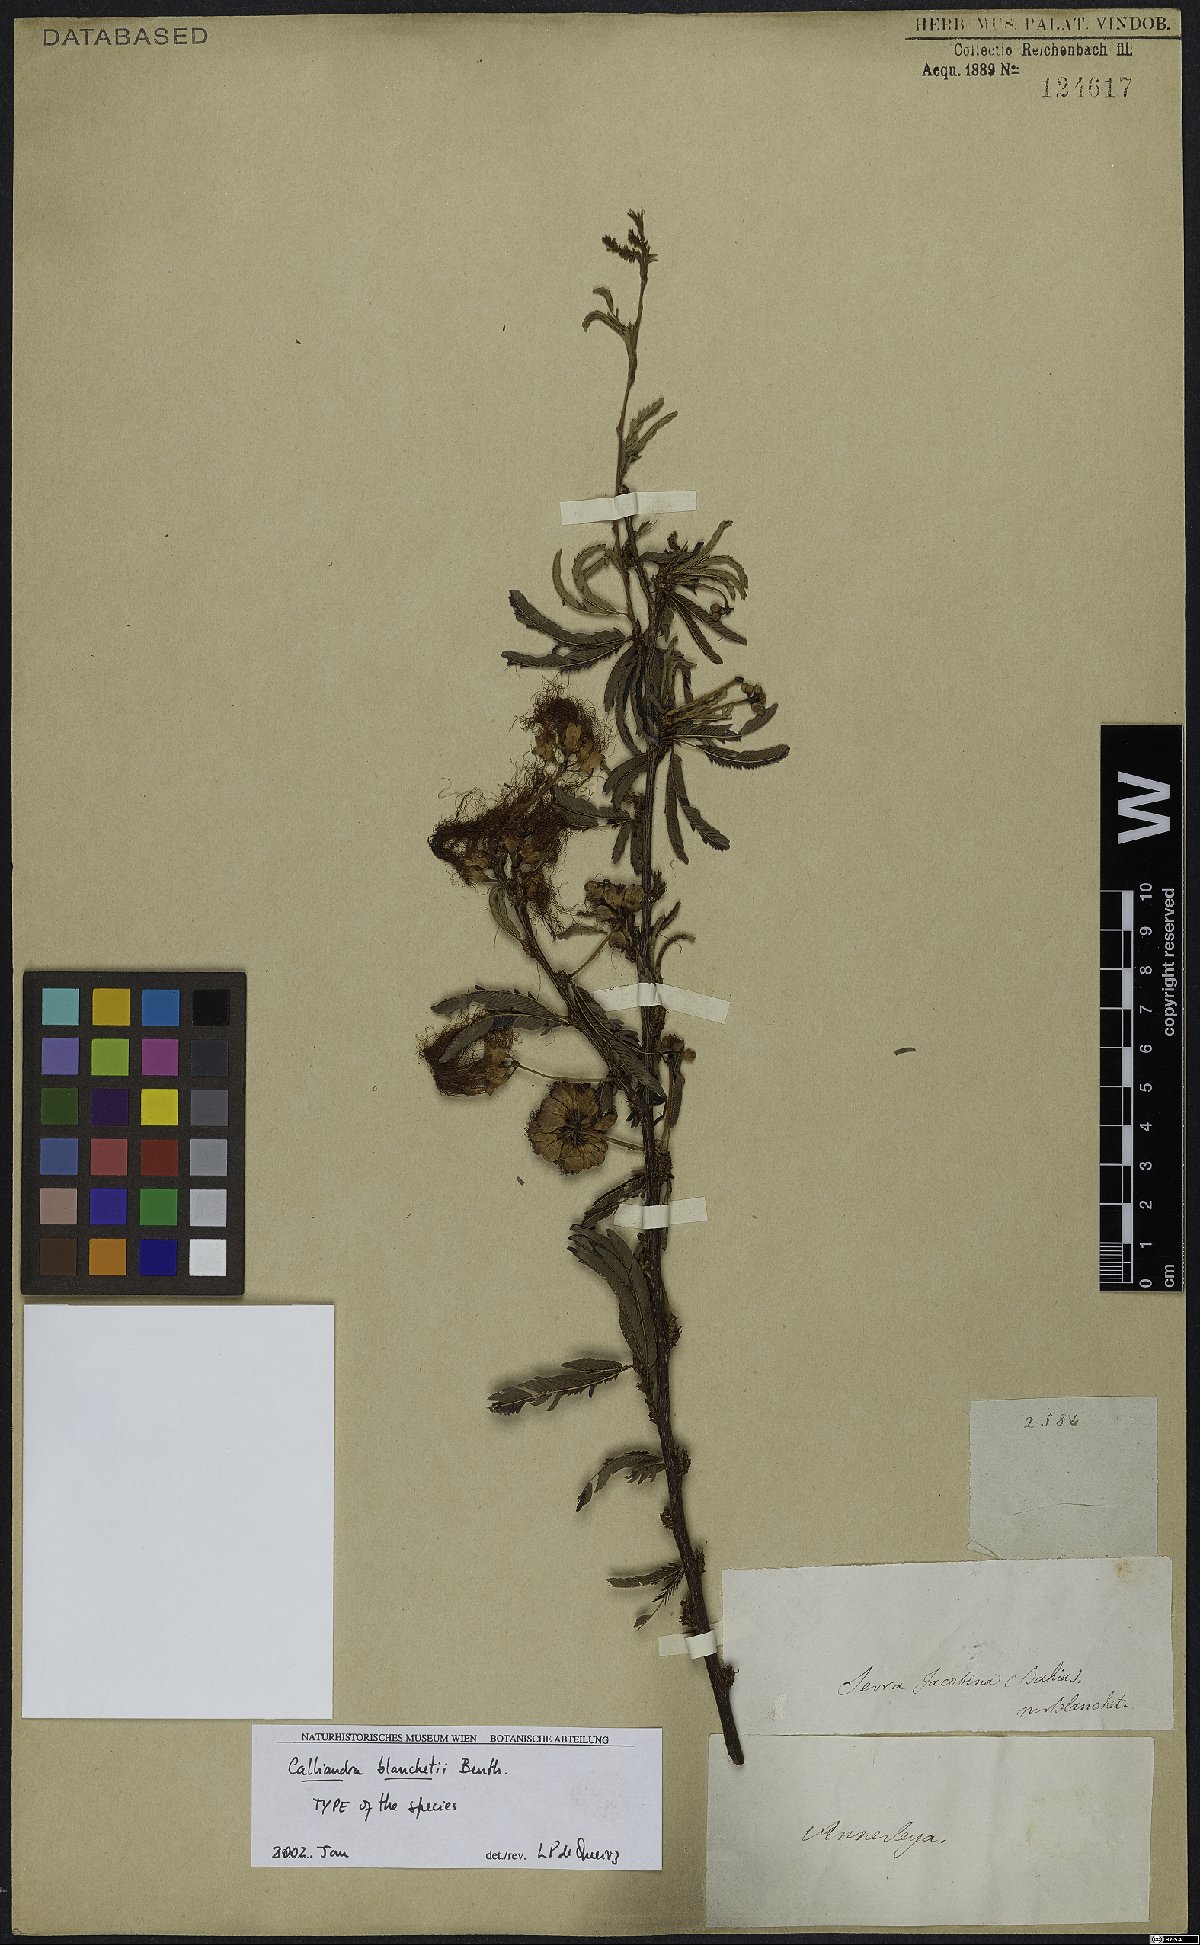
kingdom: Plantae
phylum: Tracheophyta
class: Magnoliopsida
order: Fabales
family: Fabaceae
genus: Calliandra
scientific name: Calliandra blanchetii
